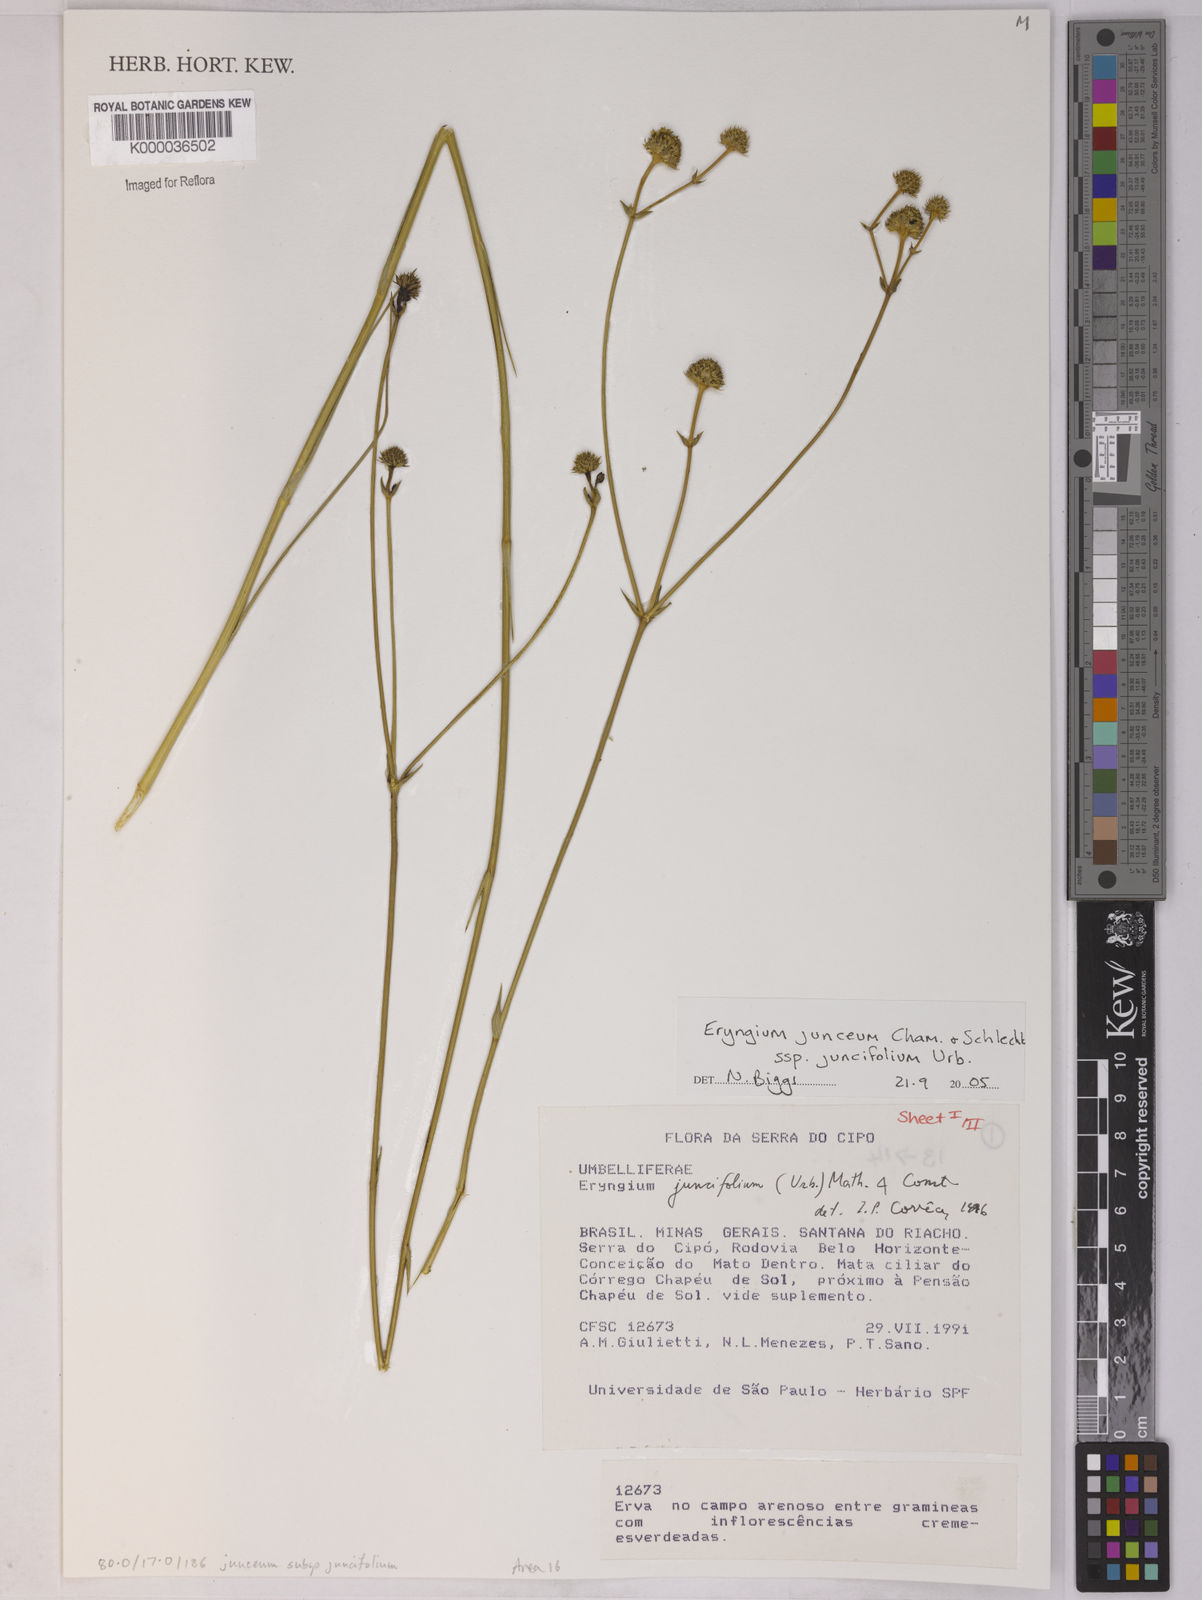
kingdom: Plantae
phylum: Tracheophyta
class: Magnoliopsida
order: Apiales
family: Apiaceae
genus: Eryngium
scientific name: Eryngium juncifolium
